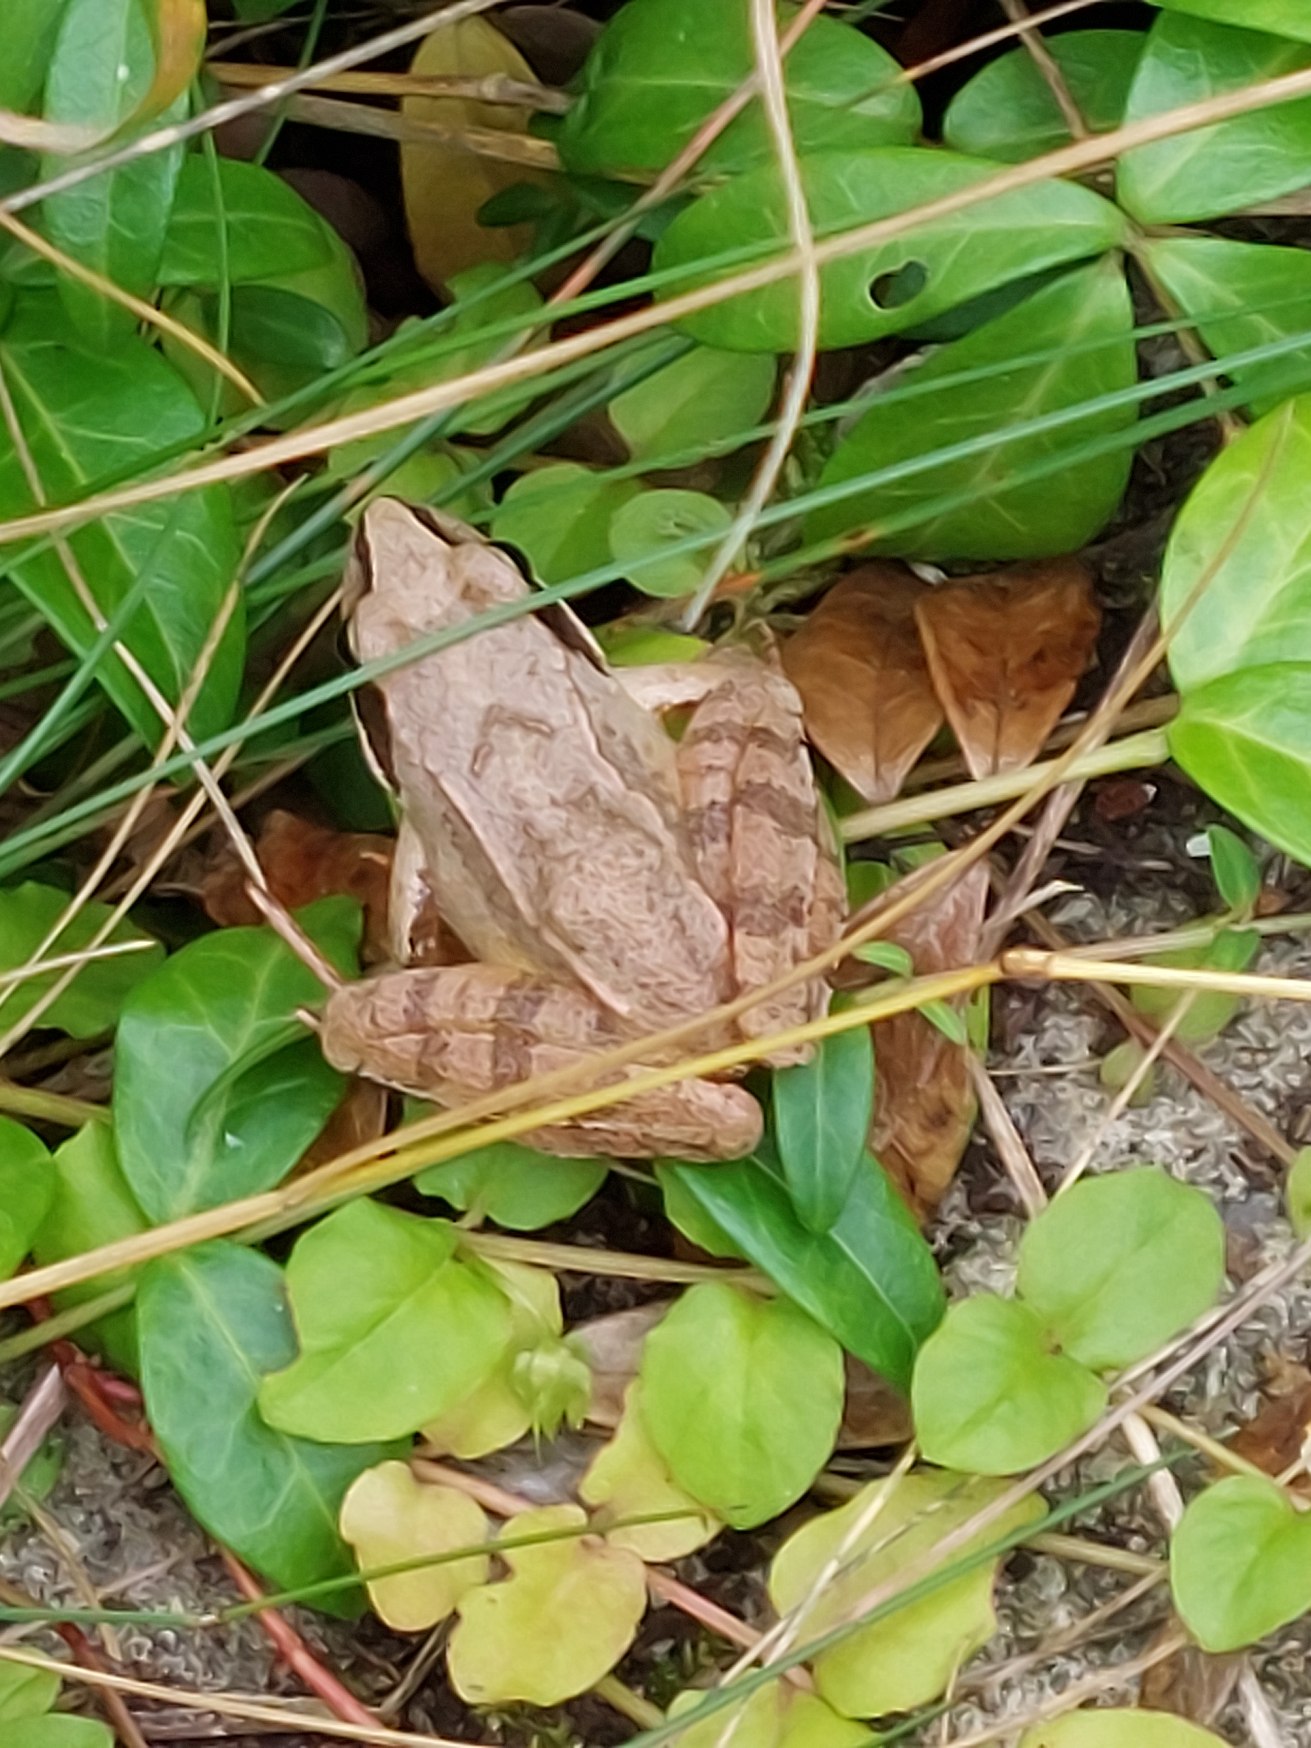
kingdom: Animalia
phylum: Chordata
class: Amphibia
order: Anura
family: Ranidae
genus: Rana
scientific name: Rana dalmatina
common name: Springfrø
